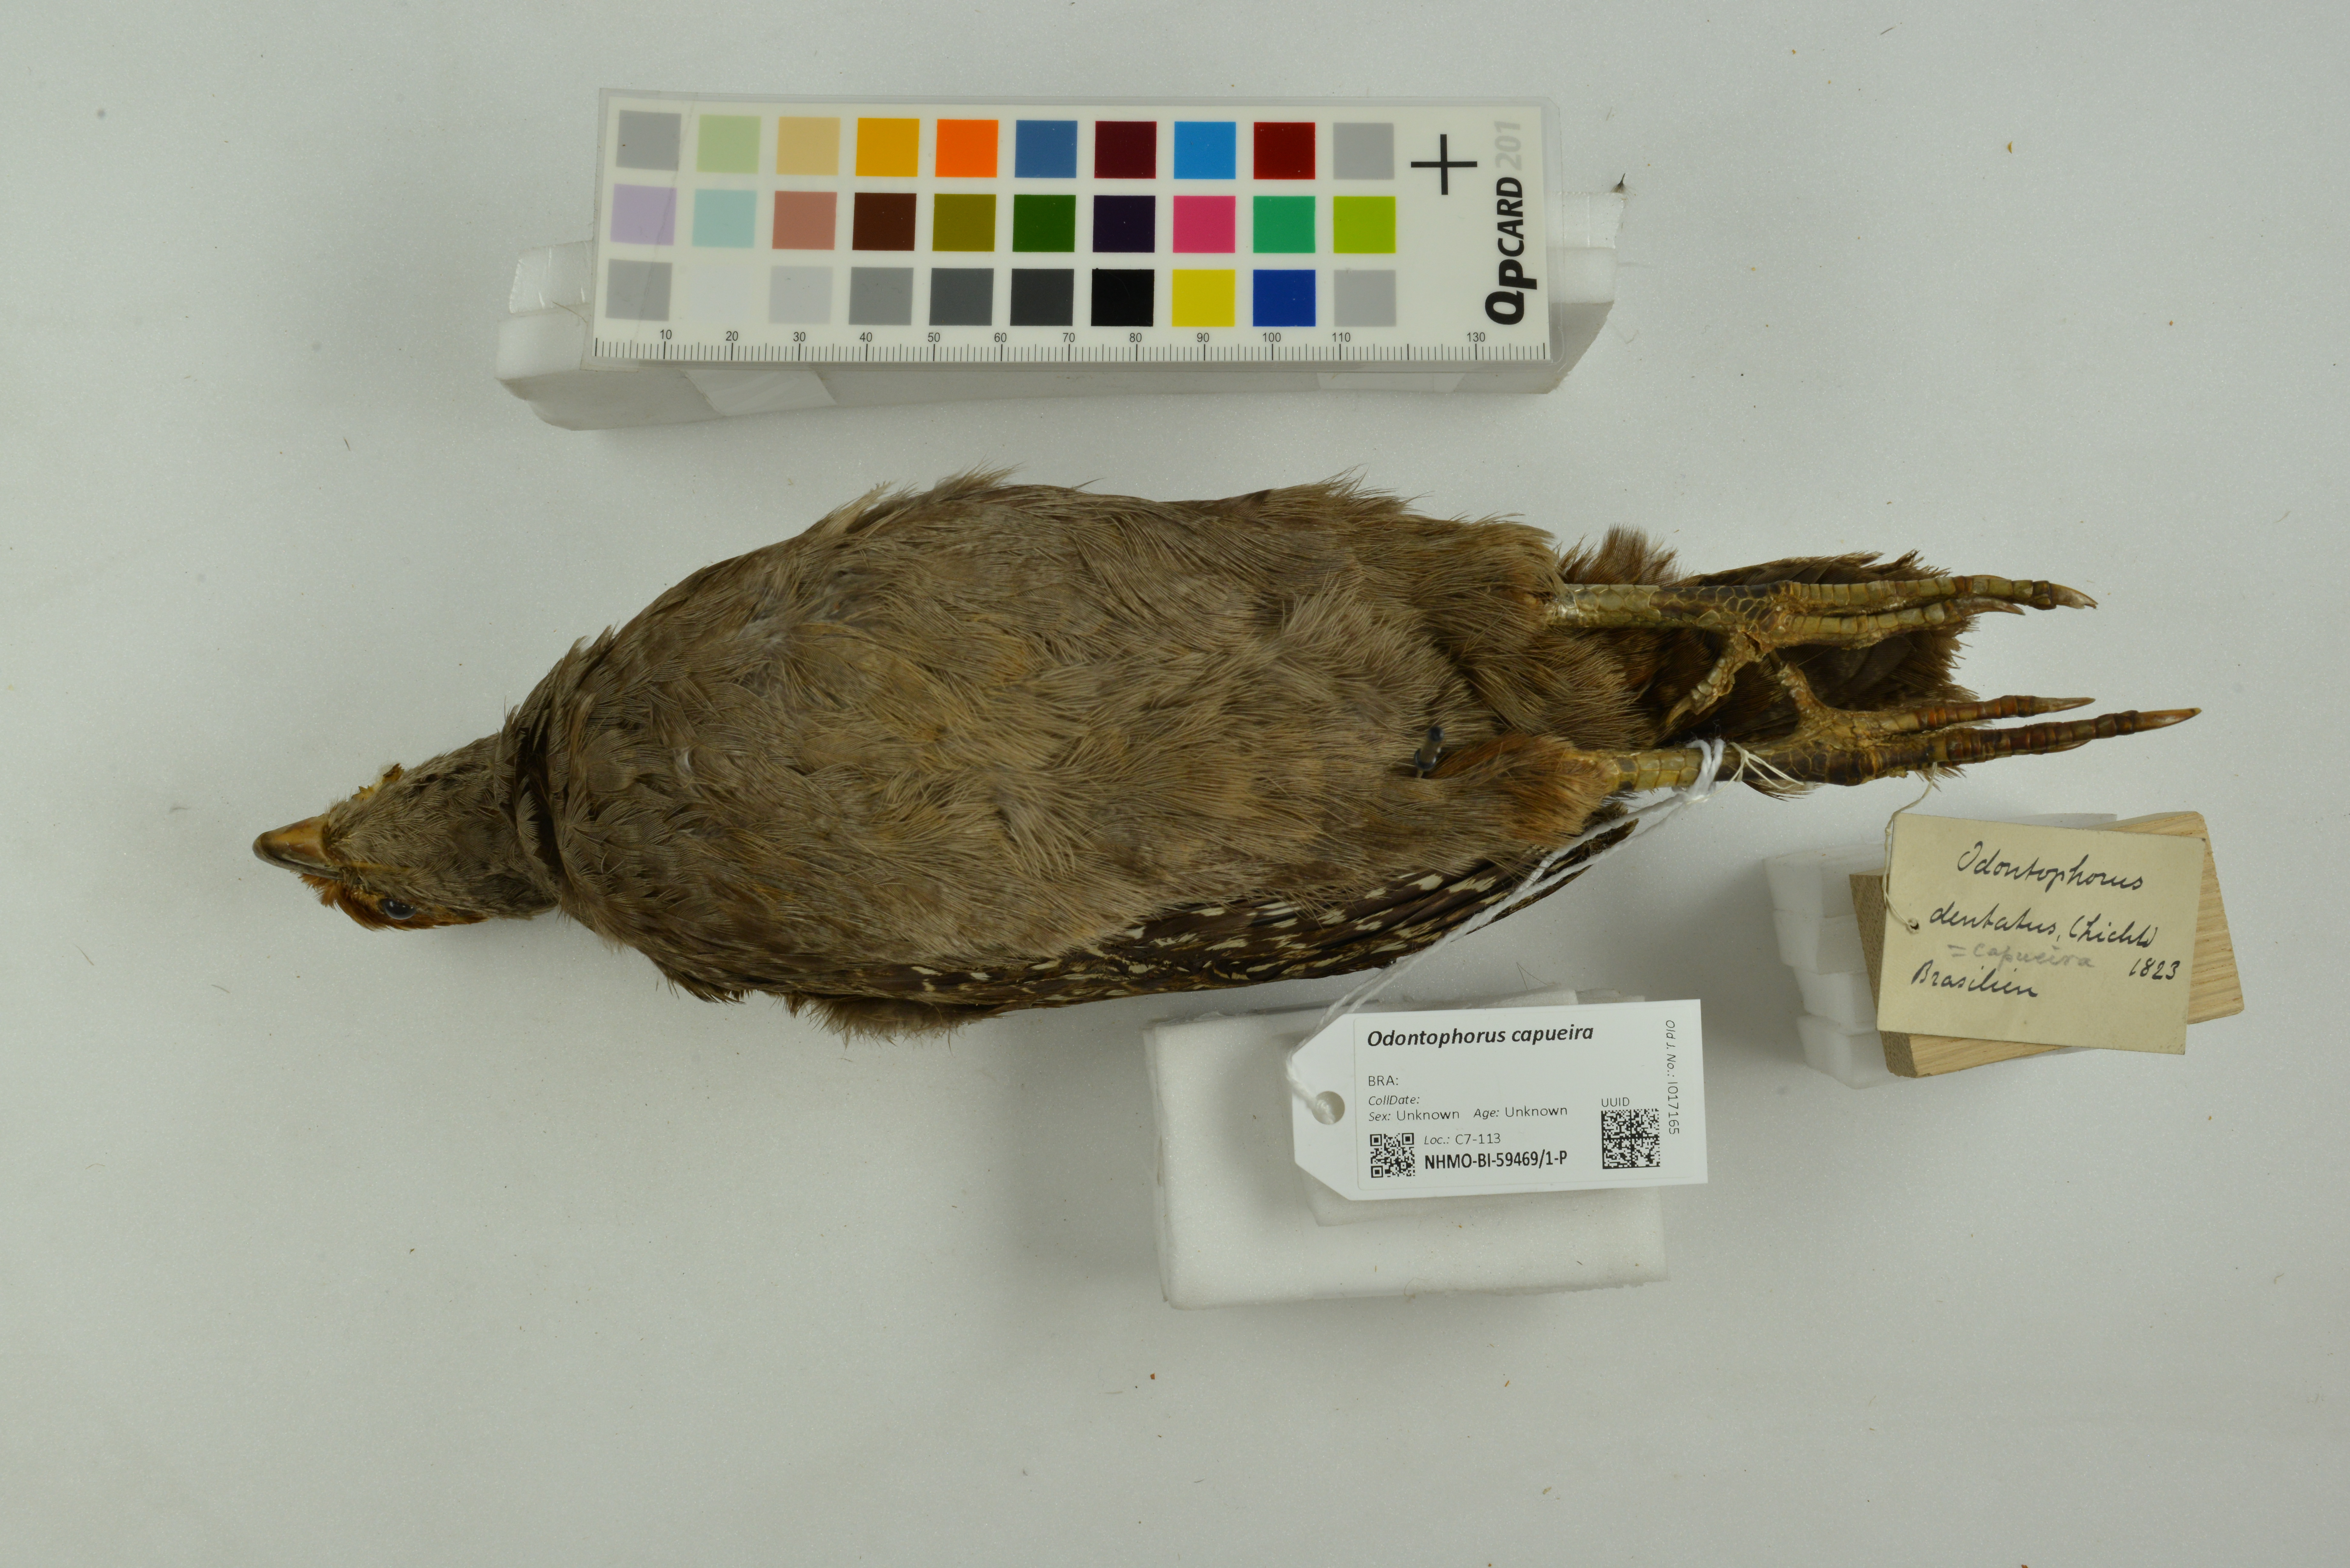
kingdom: Animalia
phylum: Chordata
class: Aves
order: Galliformes
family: Odontophoridae
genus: Odontophorus
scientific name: Odontophorus capueira
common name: Spot-winged wood quail
